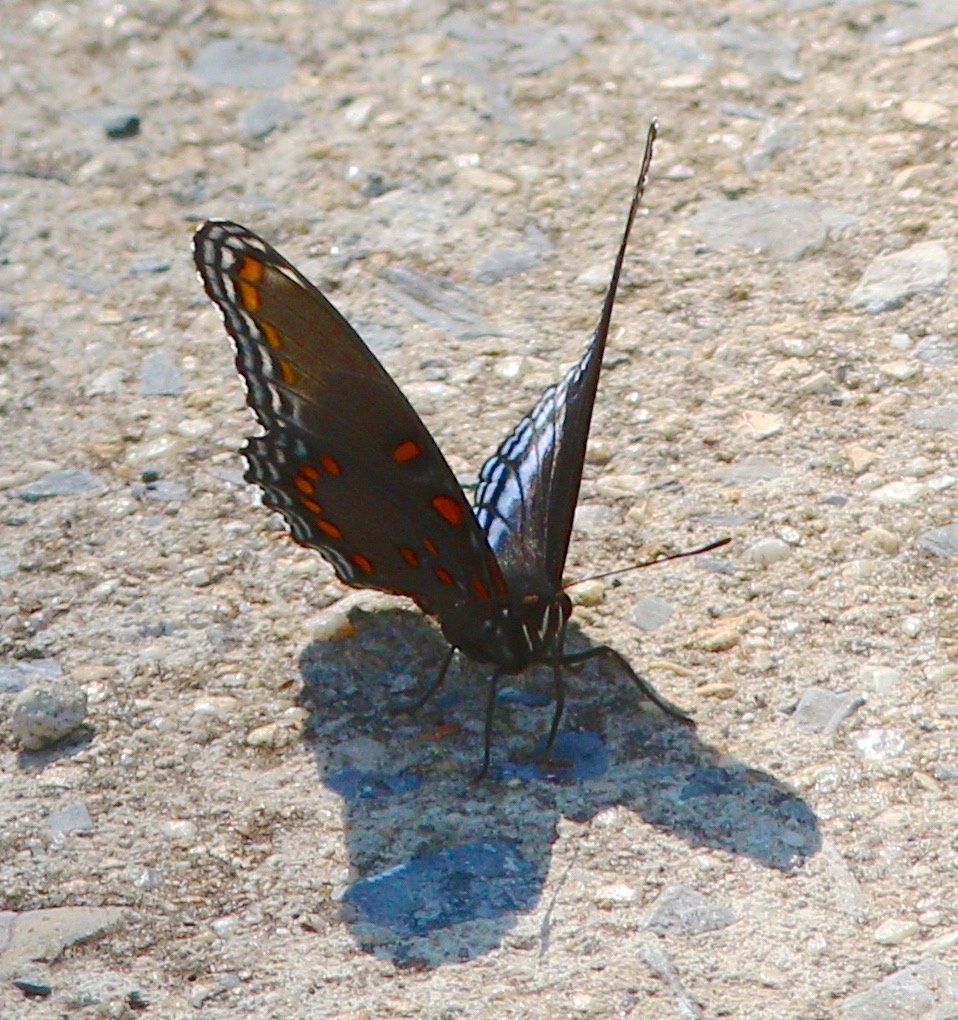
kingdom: Animalia
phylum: Arthropoda
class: Insecta
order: Lepidoptera
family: Nymphalidae
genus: Limenitis
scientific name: Limenitis astyanax
